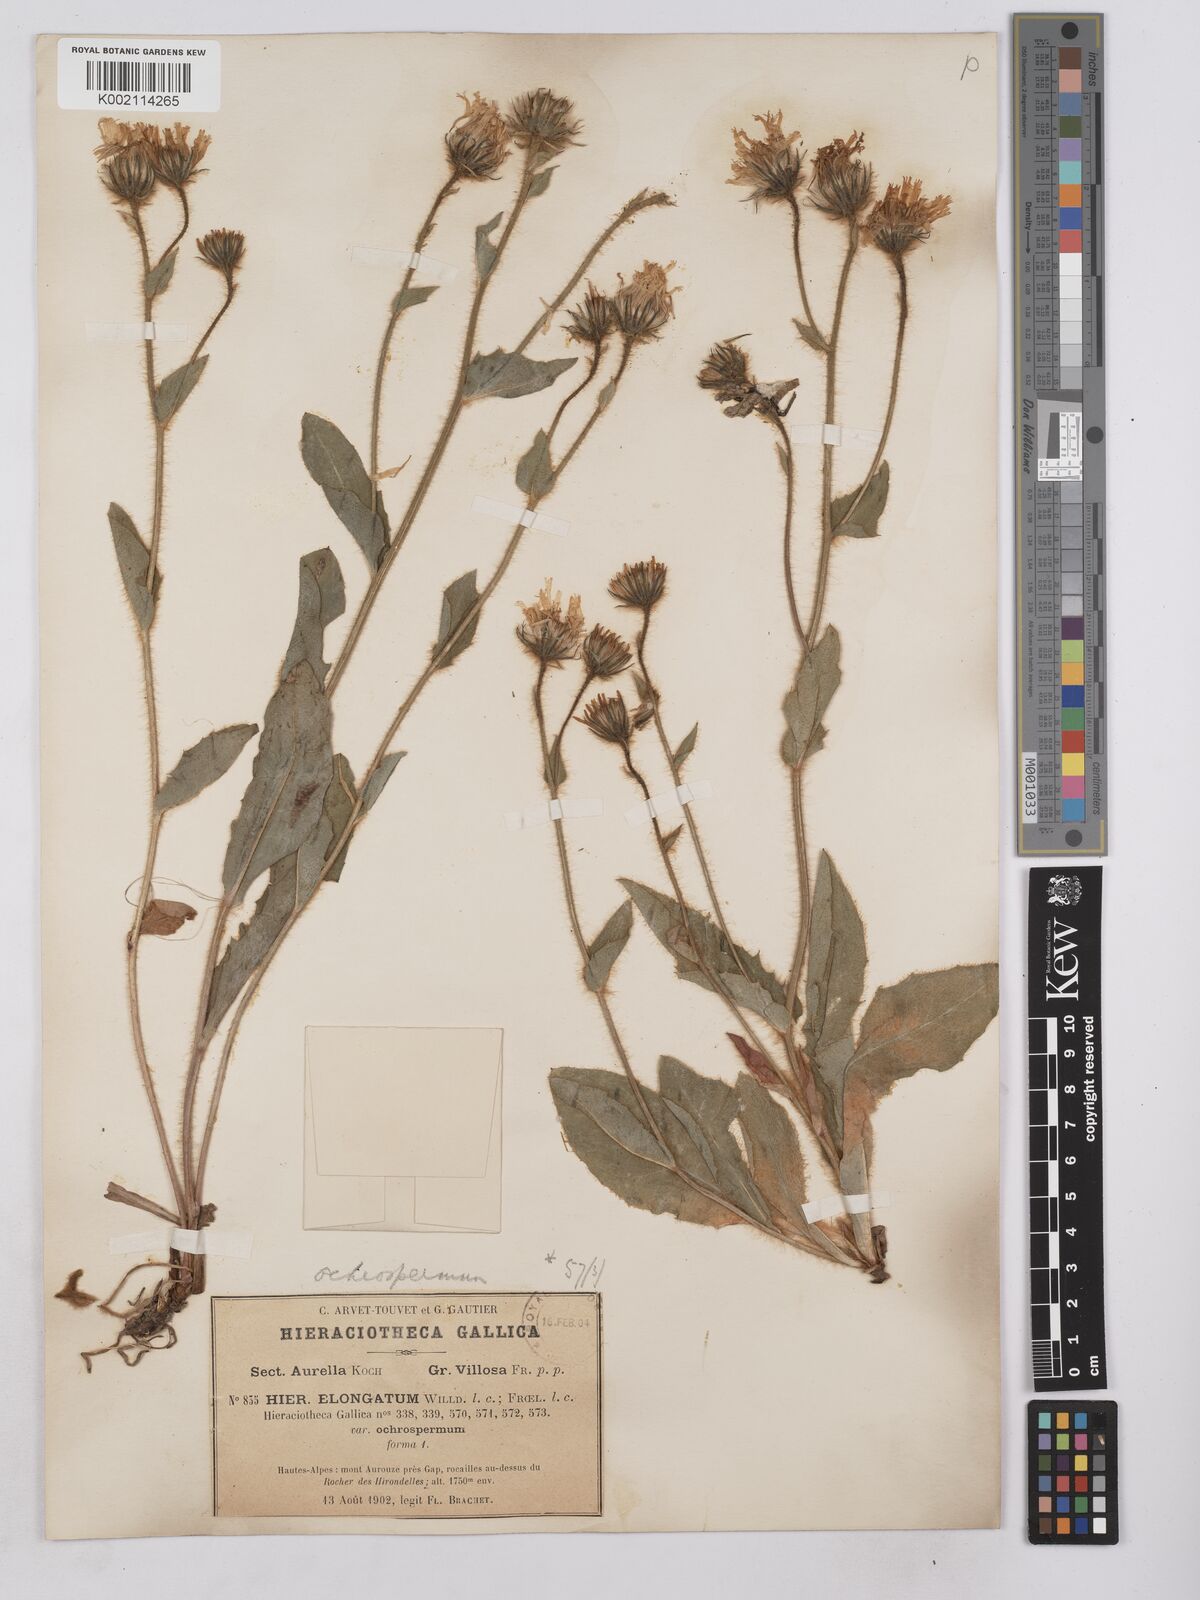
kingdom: Plantae
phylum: Tracheophyta
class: Magnoliopsida
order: Asterales
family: Asteraceae
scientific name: Asteraceae
